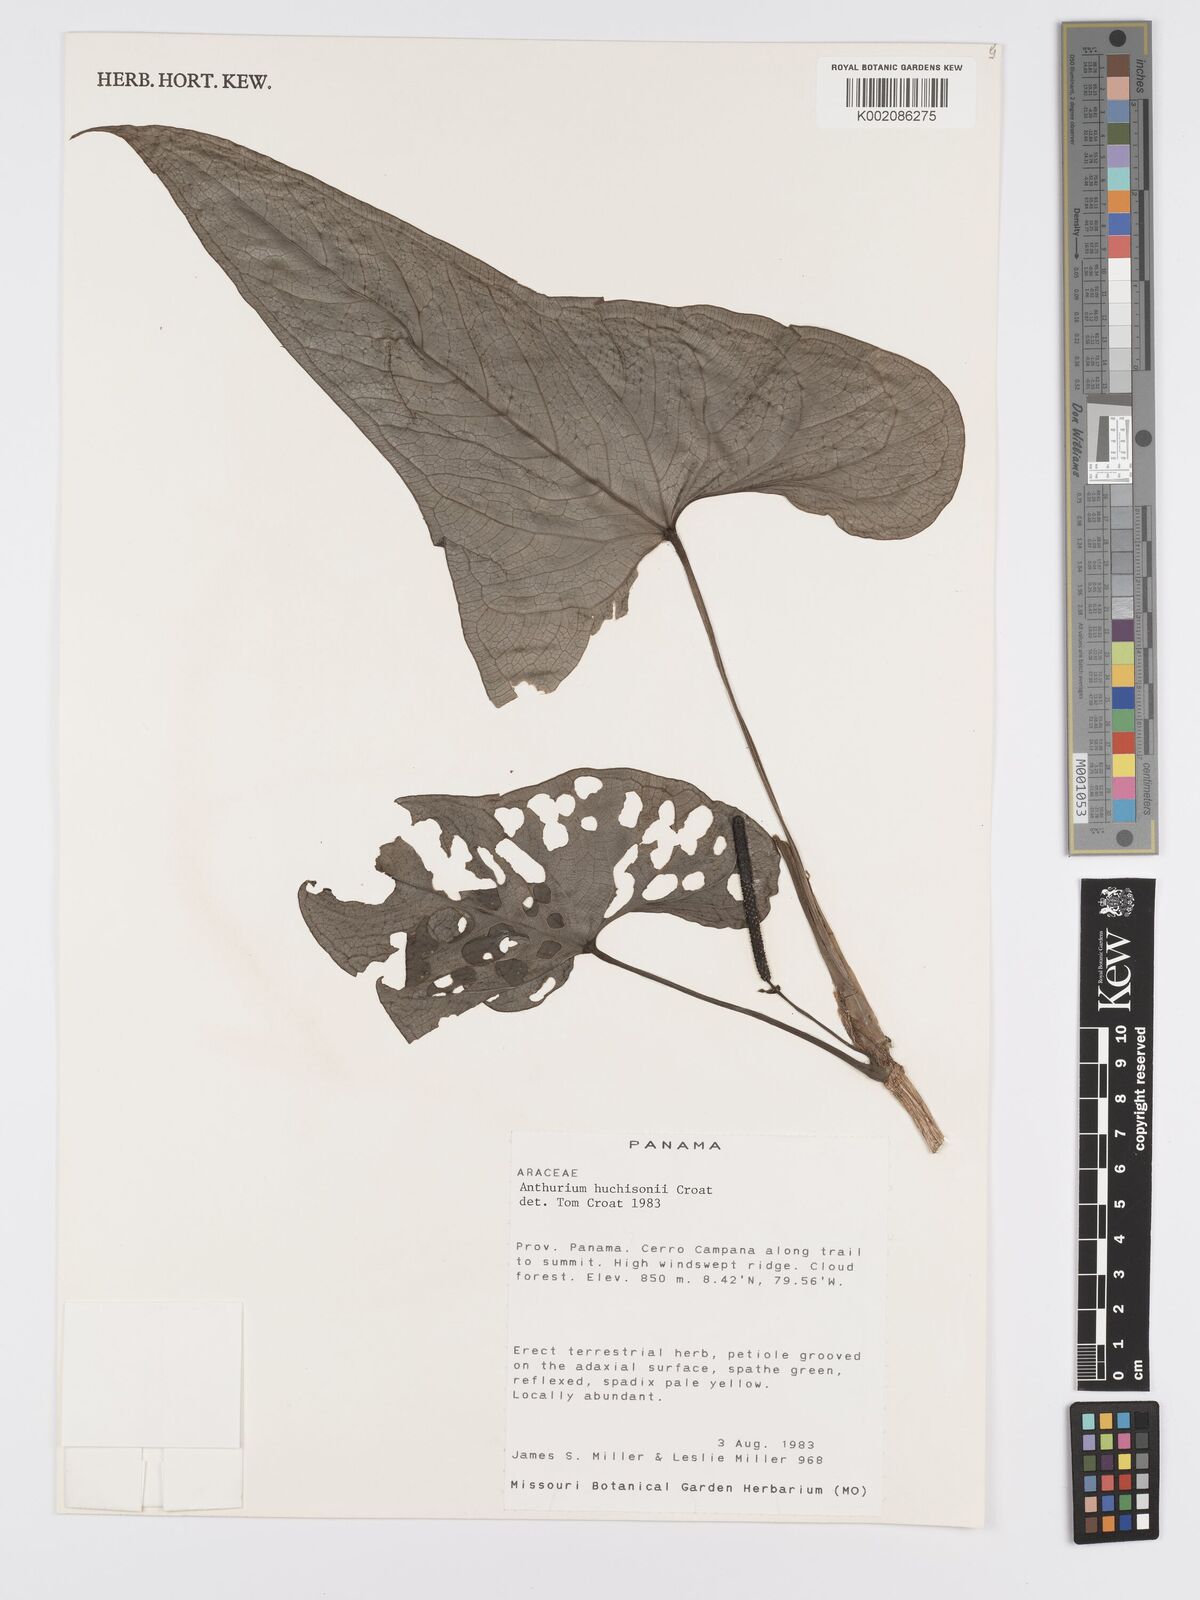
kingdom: Plantae
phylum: Tracheophyta
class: Liliopsida
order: Alismatales
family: Araceae
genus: Anthurium
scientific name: Anthurium hutchisonii
